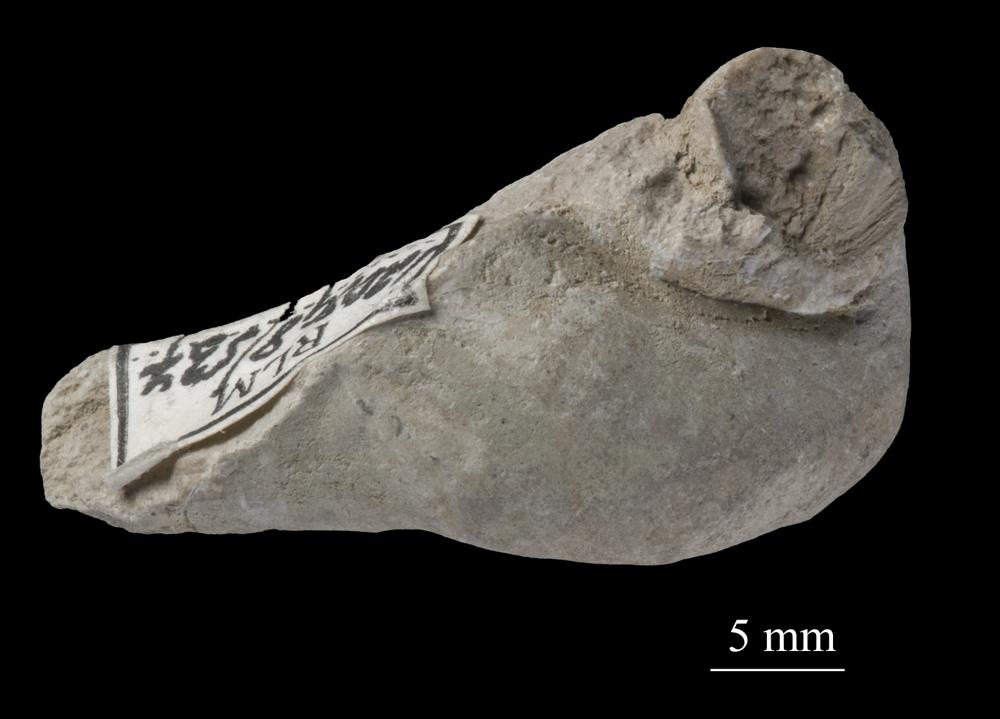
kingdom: Animalia
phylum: Mollusca
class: Gastropoda
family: Lophospiridae
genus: Loxoplocus
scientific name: Loxoplocus Worthenia vermetus
